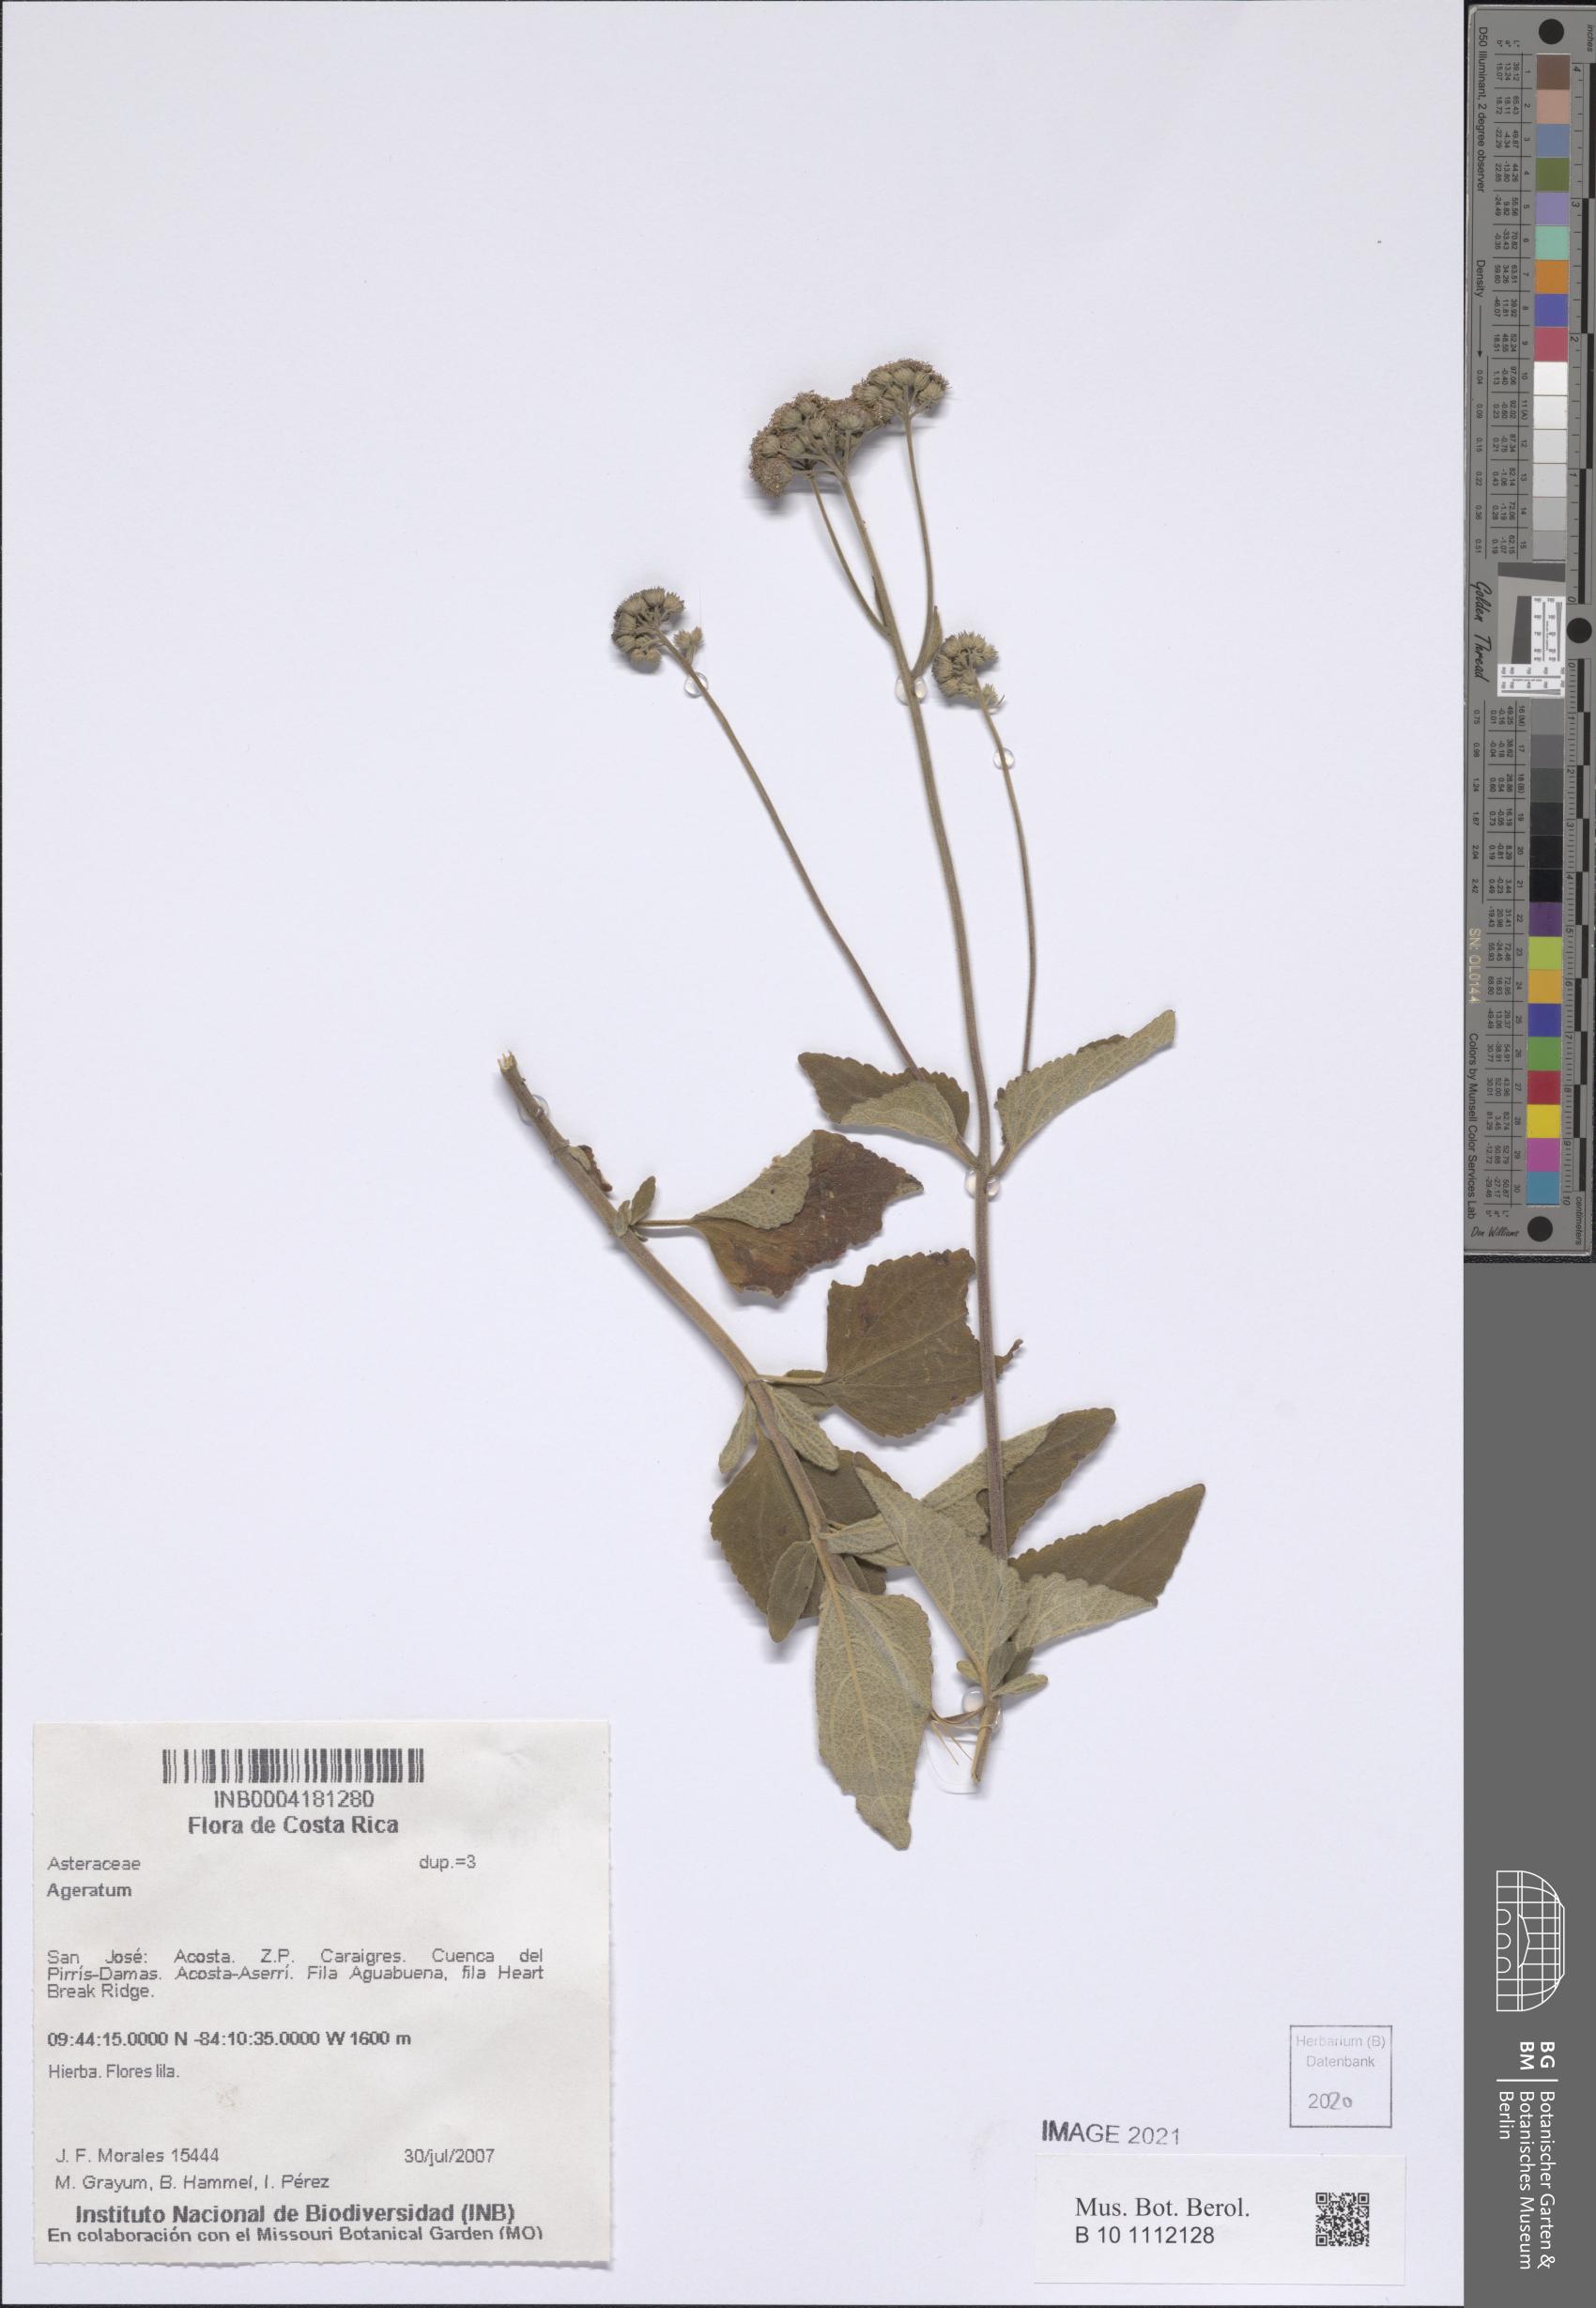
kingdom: Plantae
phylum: Tracheophyta
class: Magnoliopsida
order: Asterales
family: Asteraceae
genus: Ageratum
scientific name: Ageratum
